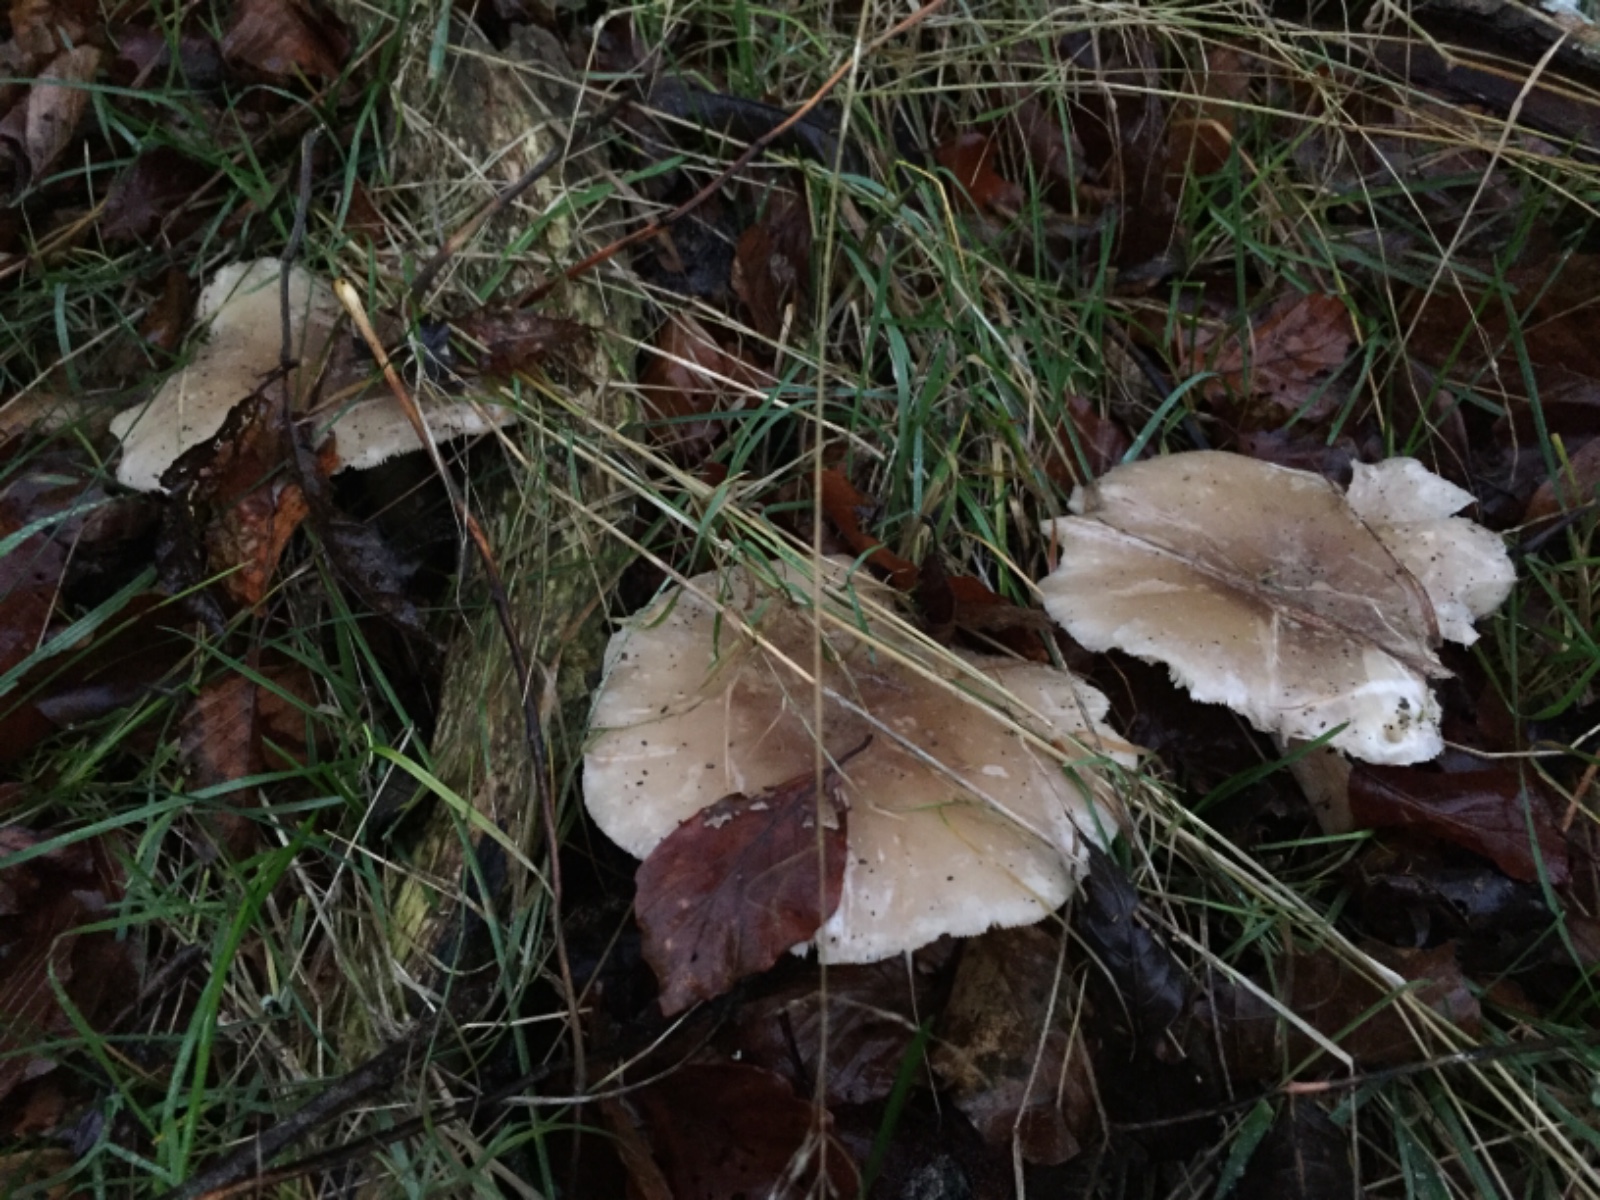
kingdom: Fungi
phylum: Basidiomycota
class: Agaricomycetes
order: Agaricales
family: Tricholomataceae
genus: Clitocybe
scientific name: Clitocybe nebularis
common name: tåge-tragthat
